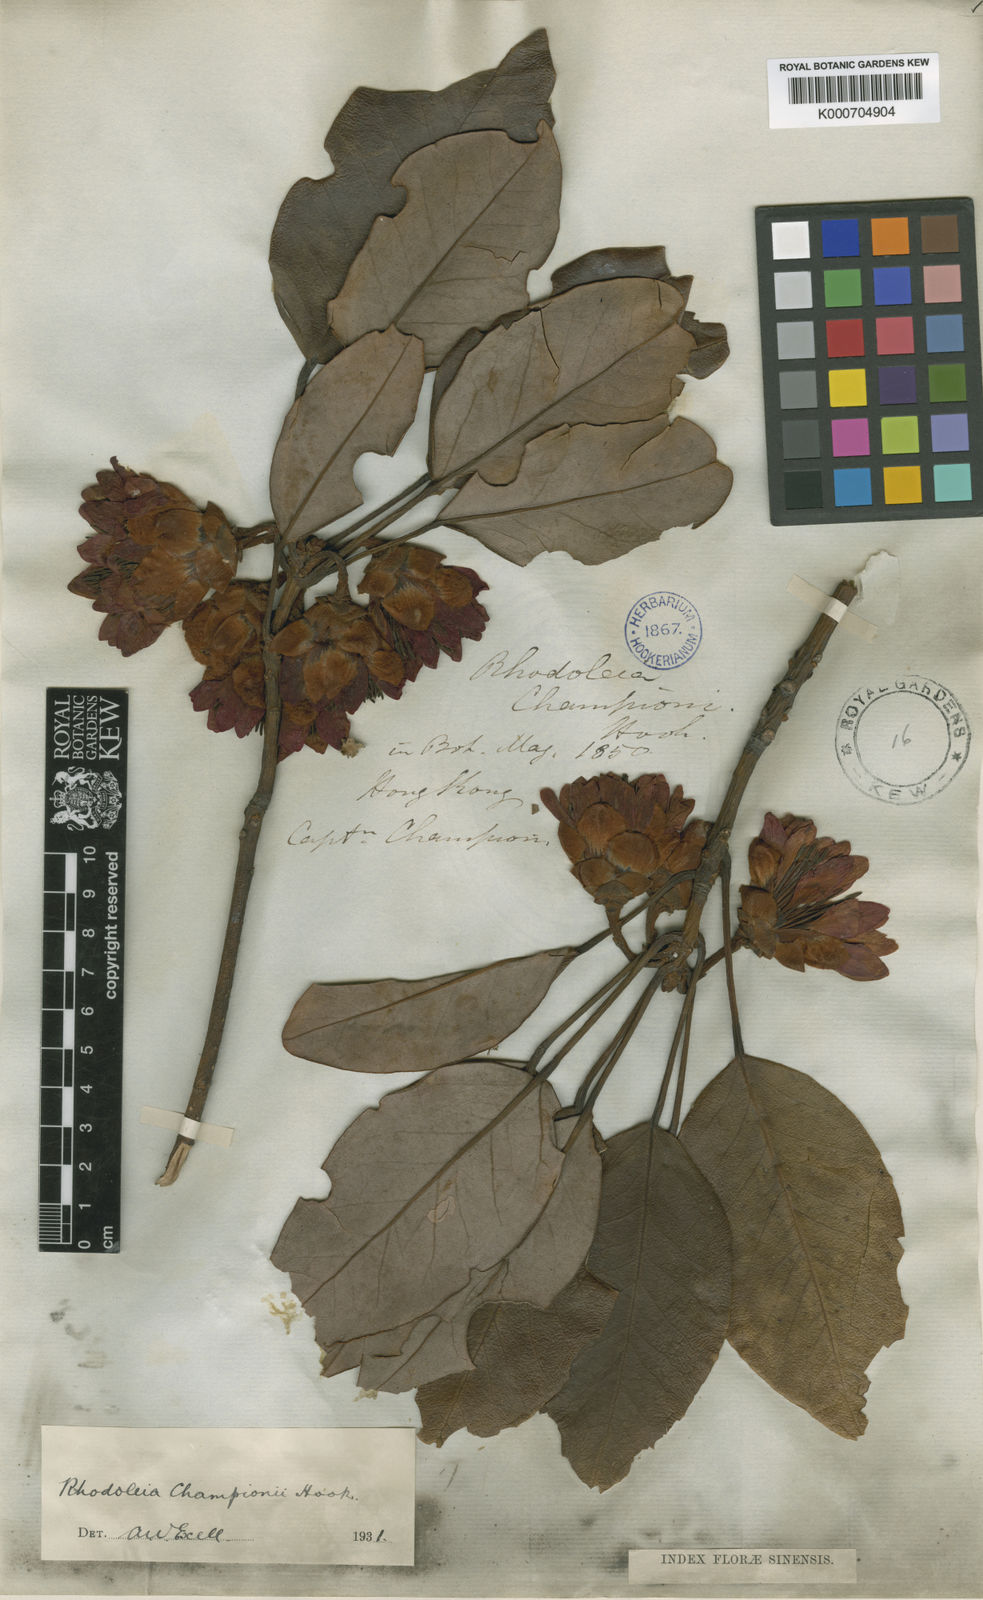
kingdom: Plantae
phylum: Tracheophyta
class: Magnoliopsida
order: Saxifragales
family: Hamamelidaceae
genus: Rhodoleia
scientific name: Rhodoleia championii
